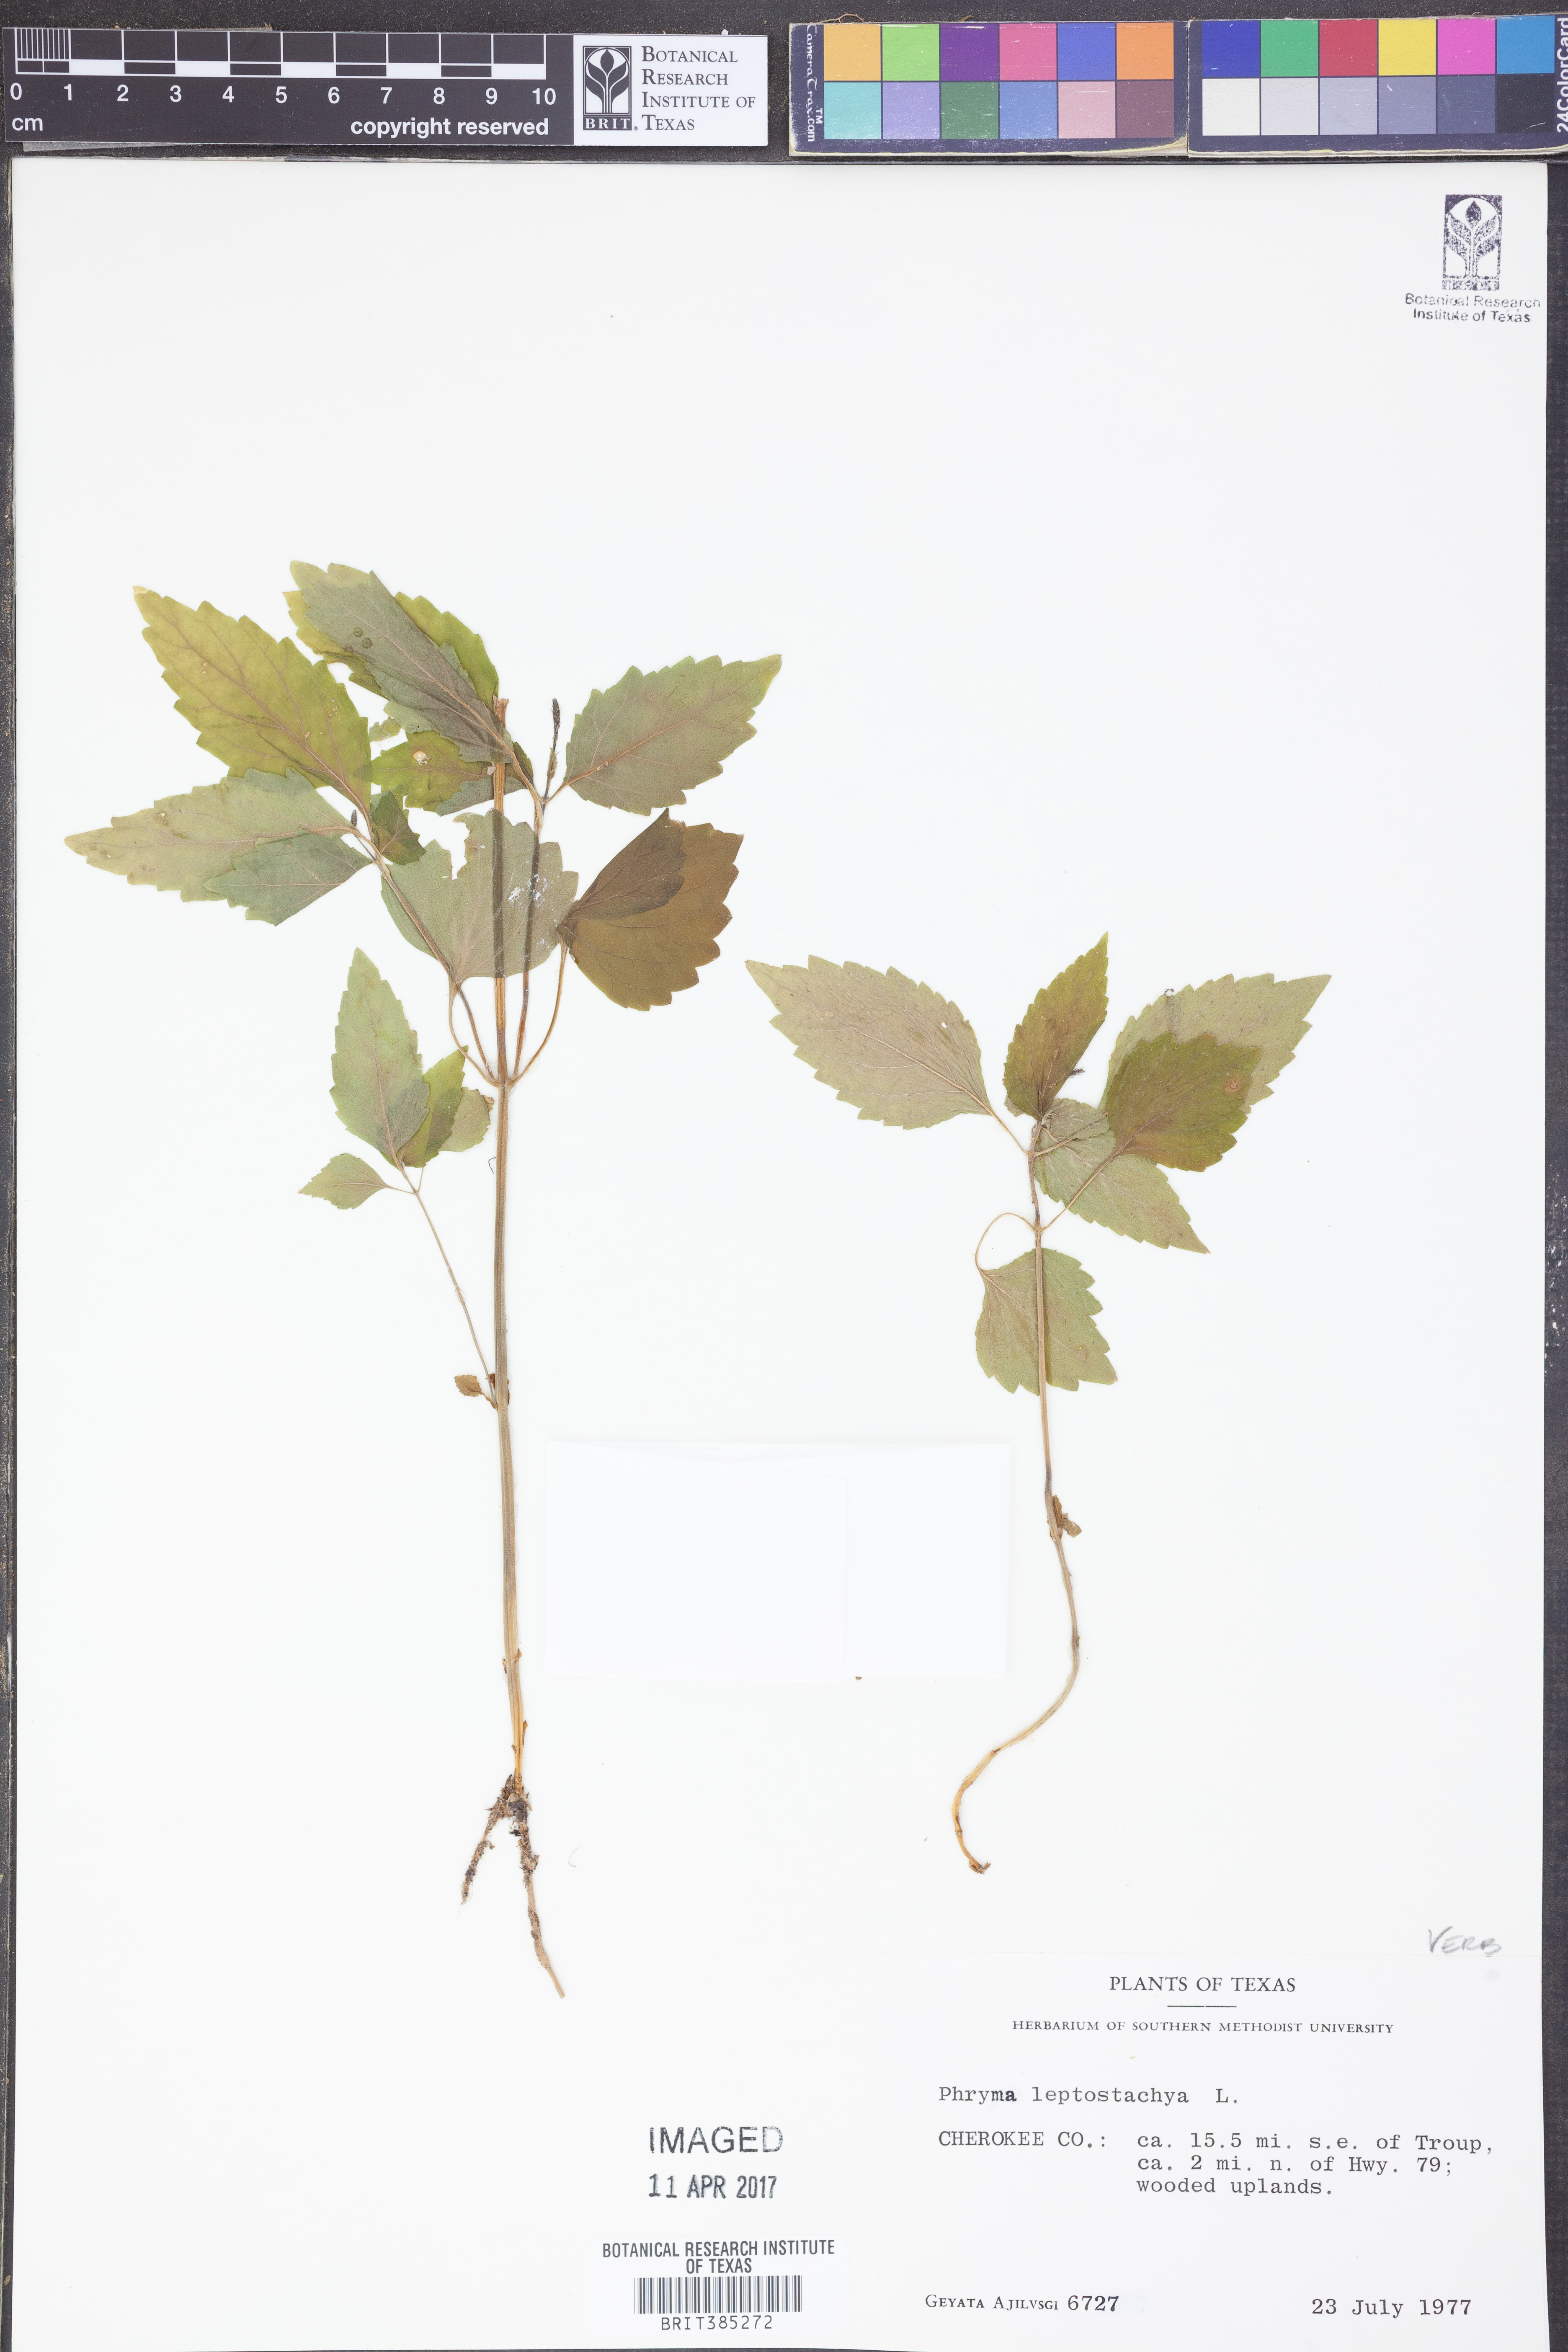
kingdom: Plantae
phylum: Tracheophyta
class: Magnoliopsida
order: Lamiales
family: Phrymaceae
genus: Phryma
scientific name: Phryma leptostachya
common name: American lopseed
